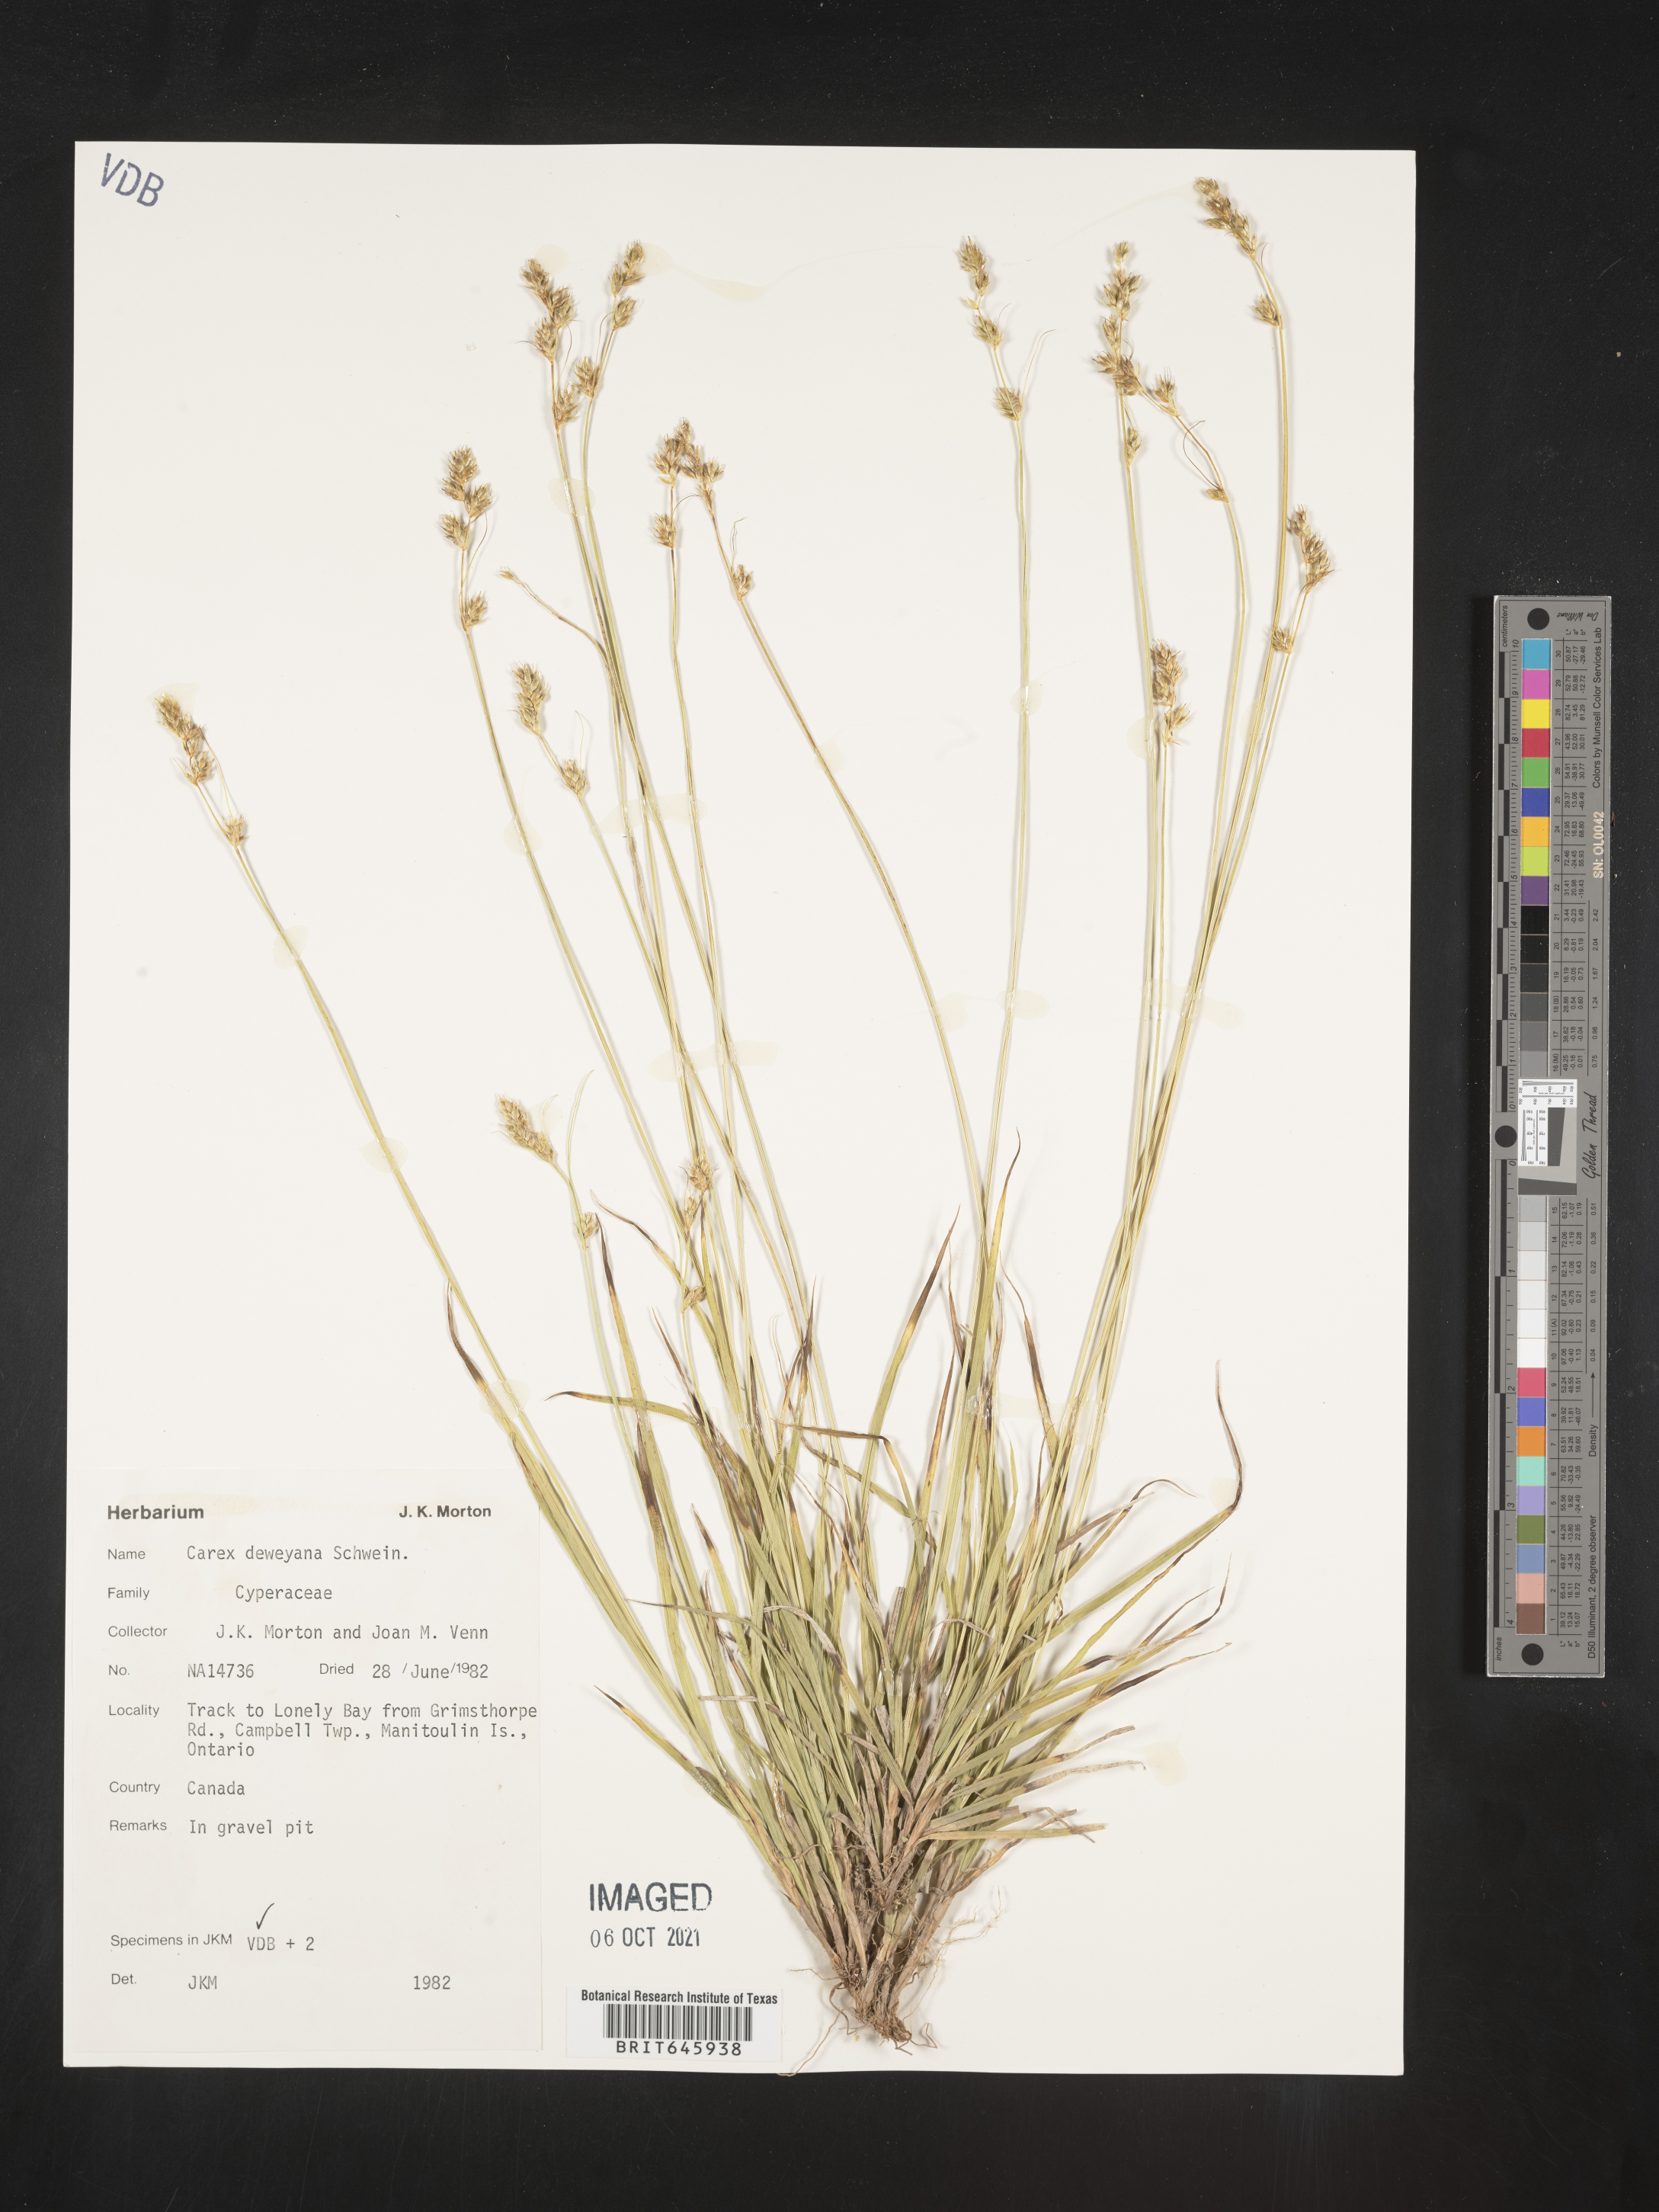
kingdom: Plantae
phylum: Tracheophyta
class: Liliopsida
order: Poales
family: Cyperaceae
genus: Carex
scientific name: Carex deweyana
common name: Dewey's sedge
